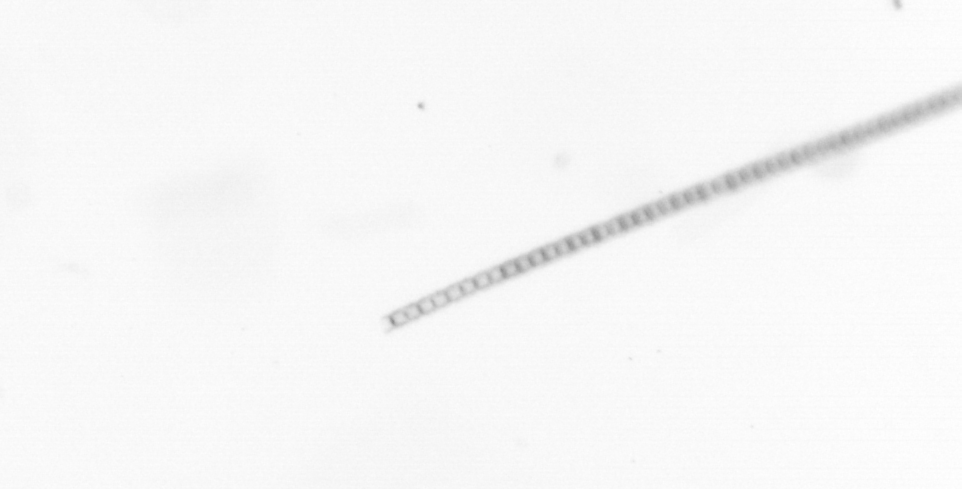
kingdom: Chromista
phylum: Ochrophyta
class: Bacillariophyceae
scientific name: Bacillariophyceae
